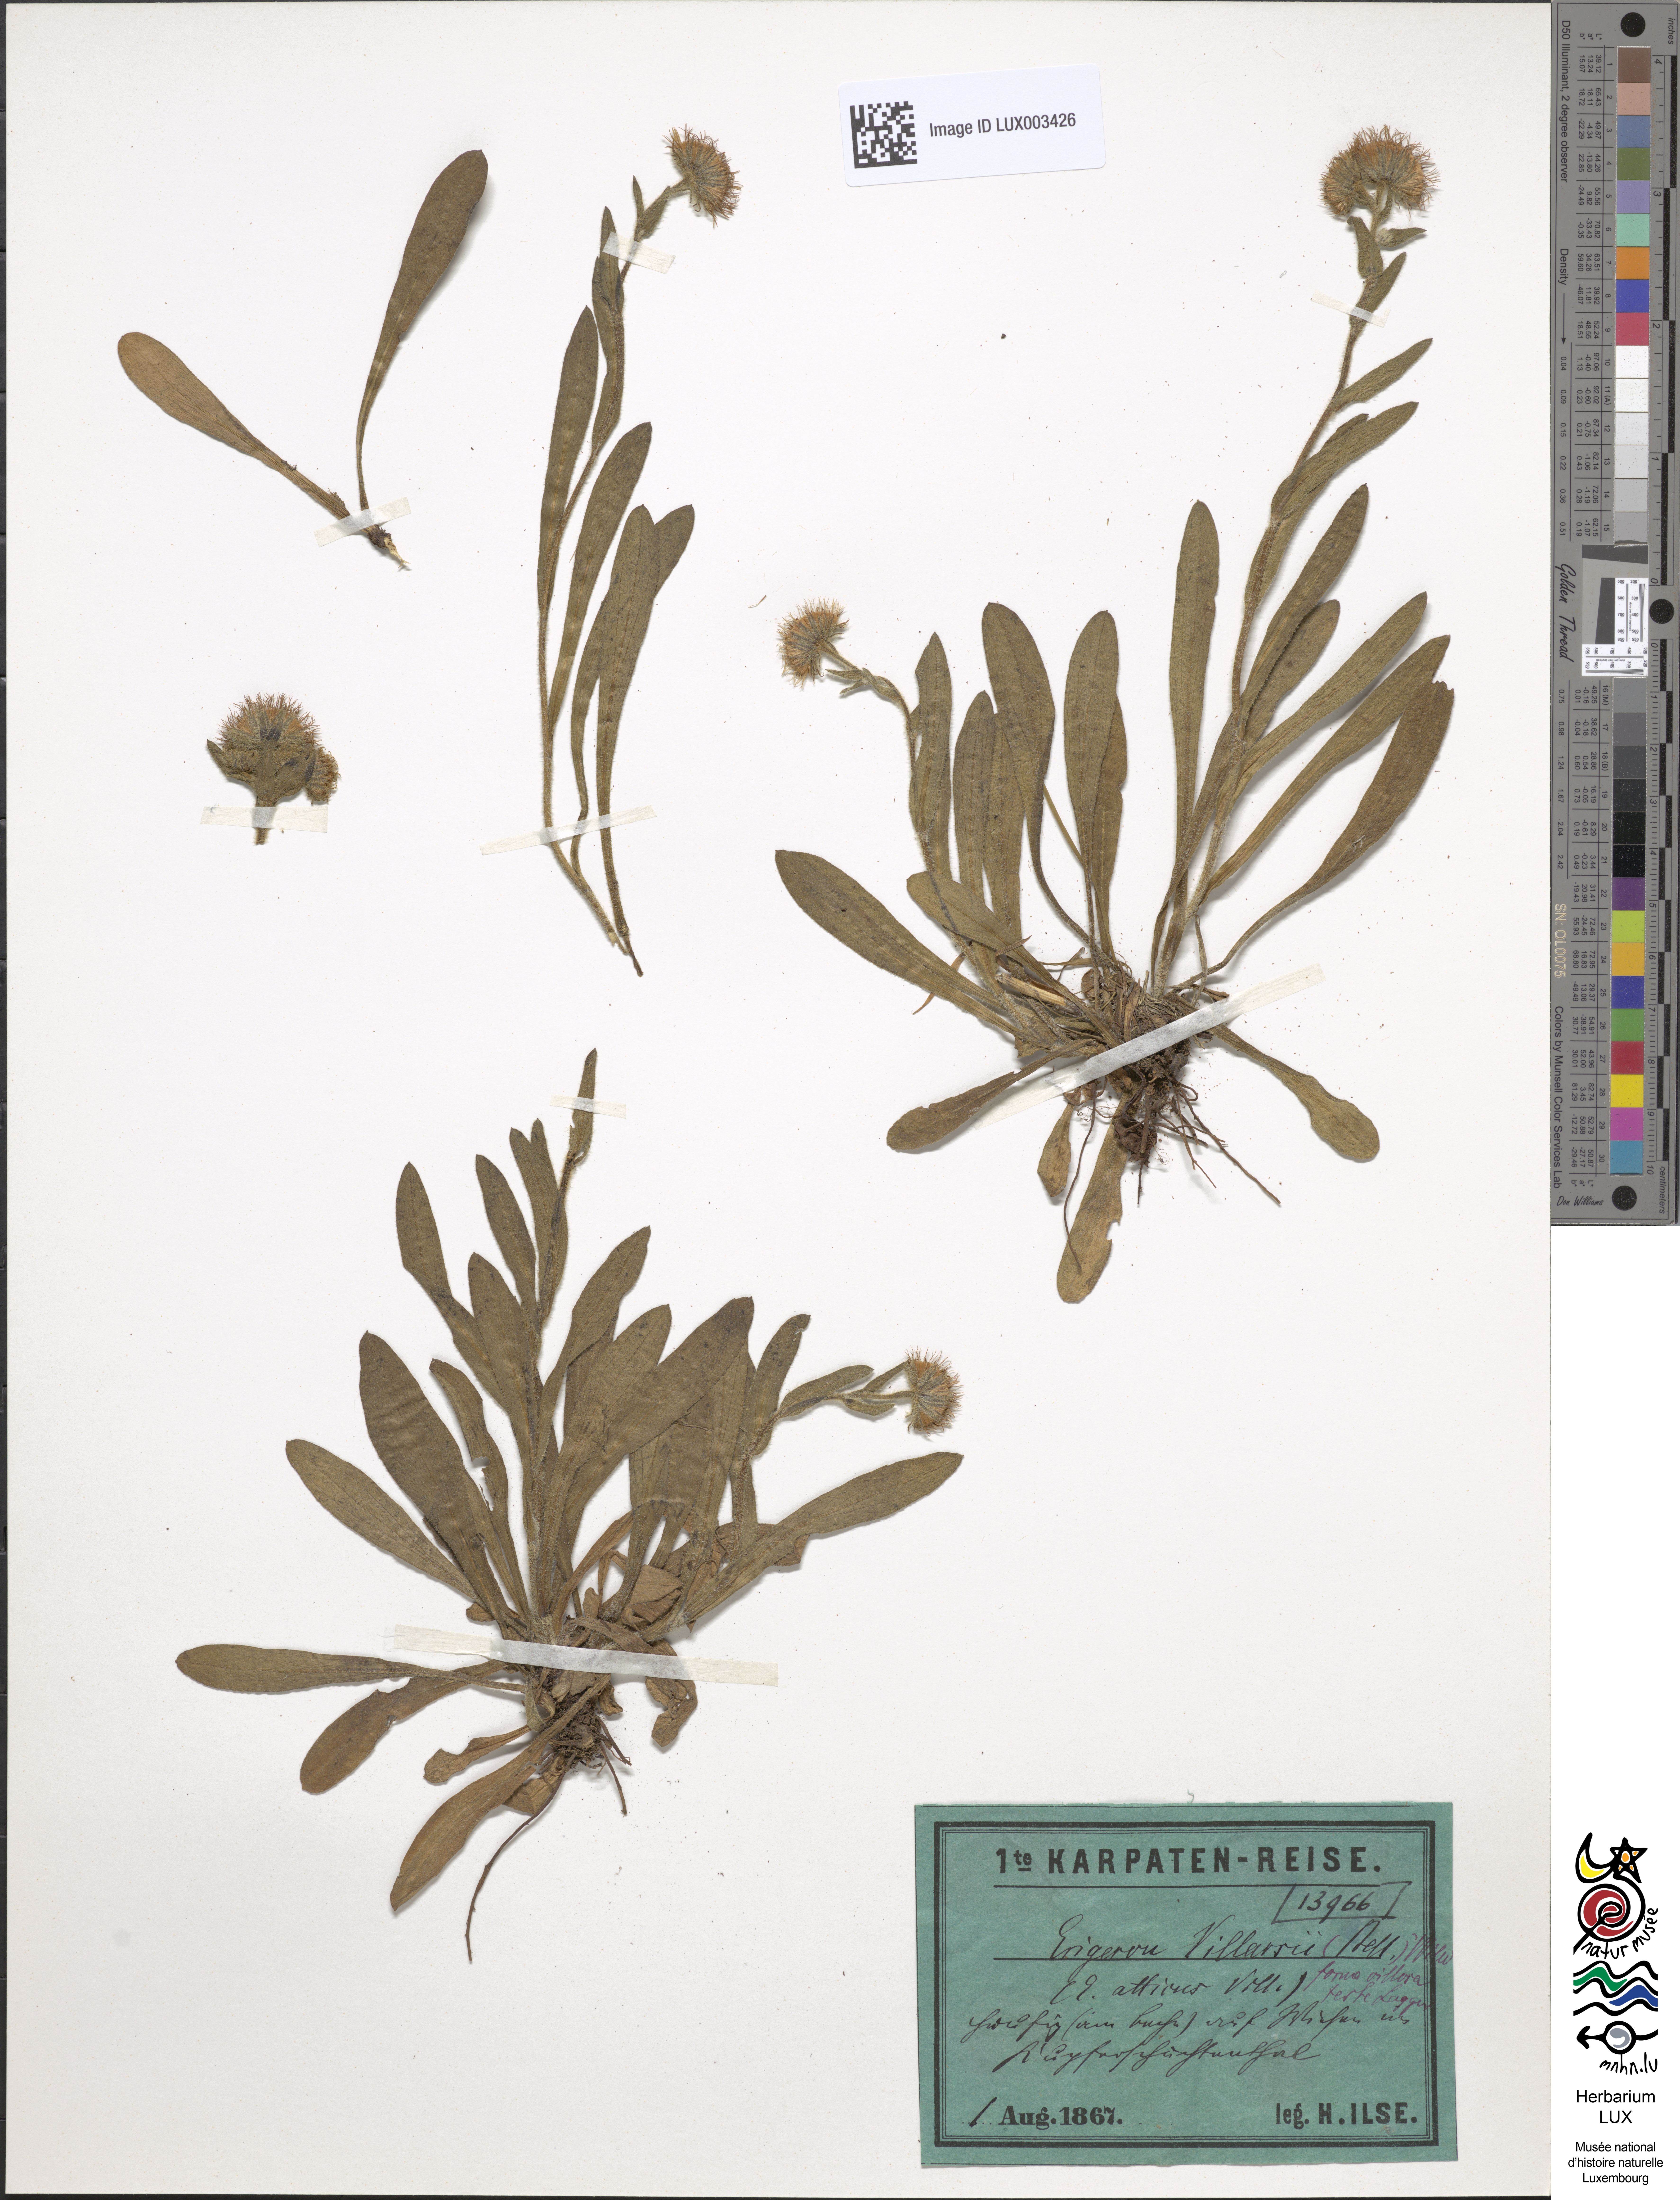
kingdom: Plantae
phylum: Tracheophyta
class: Magnoliopsida
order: Gentianales
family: Rubiaceae
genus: Galium
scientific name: Galium pumilum
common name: Slender bedstraw
